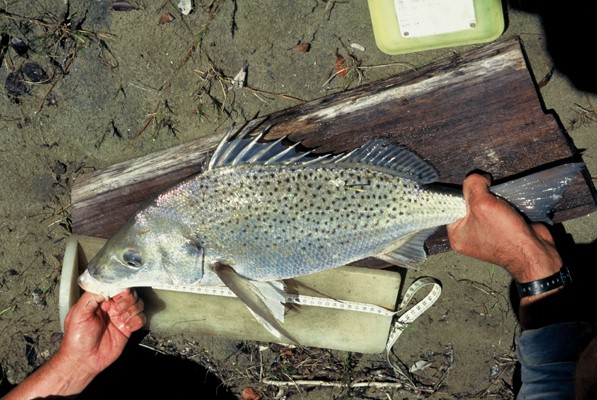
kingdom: Animalia
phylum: Chordata
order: Perciformes
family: Haemulidae
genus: Pomadasys
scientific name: Pomadasys commersonnii
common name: Smallspotted grunter
